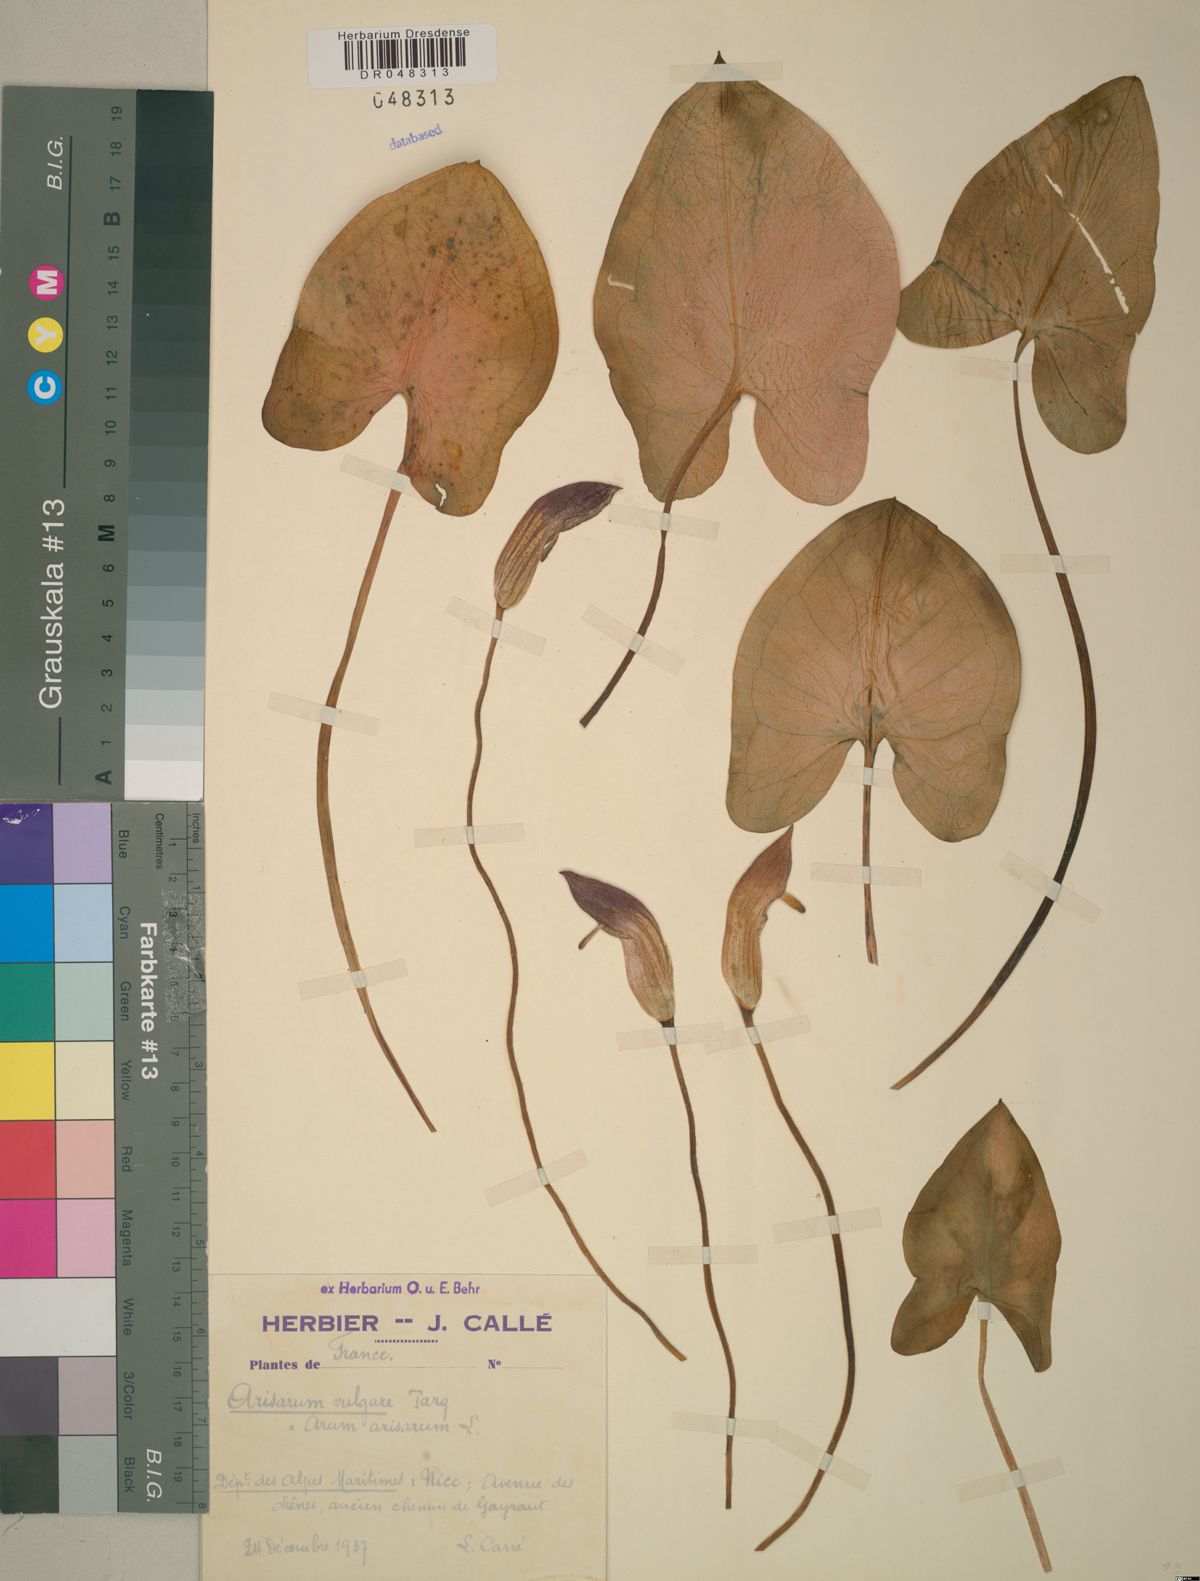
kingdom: Plantae
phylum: Tracheophyta
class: Liliopsida
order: Alismatales
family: Araceae
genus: Arisarum
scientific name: Arisarum vulgare
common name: Common arisarum
